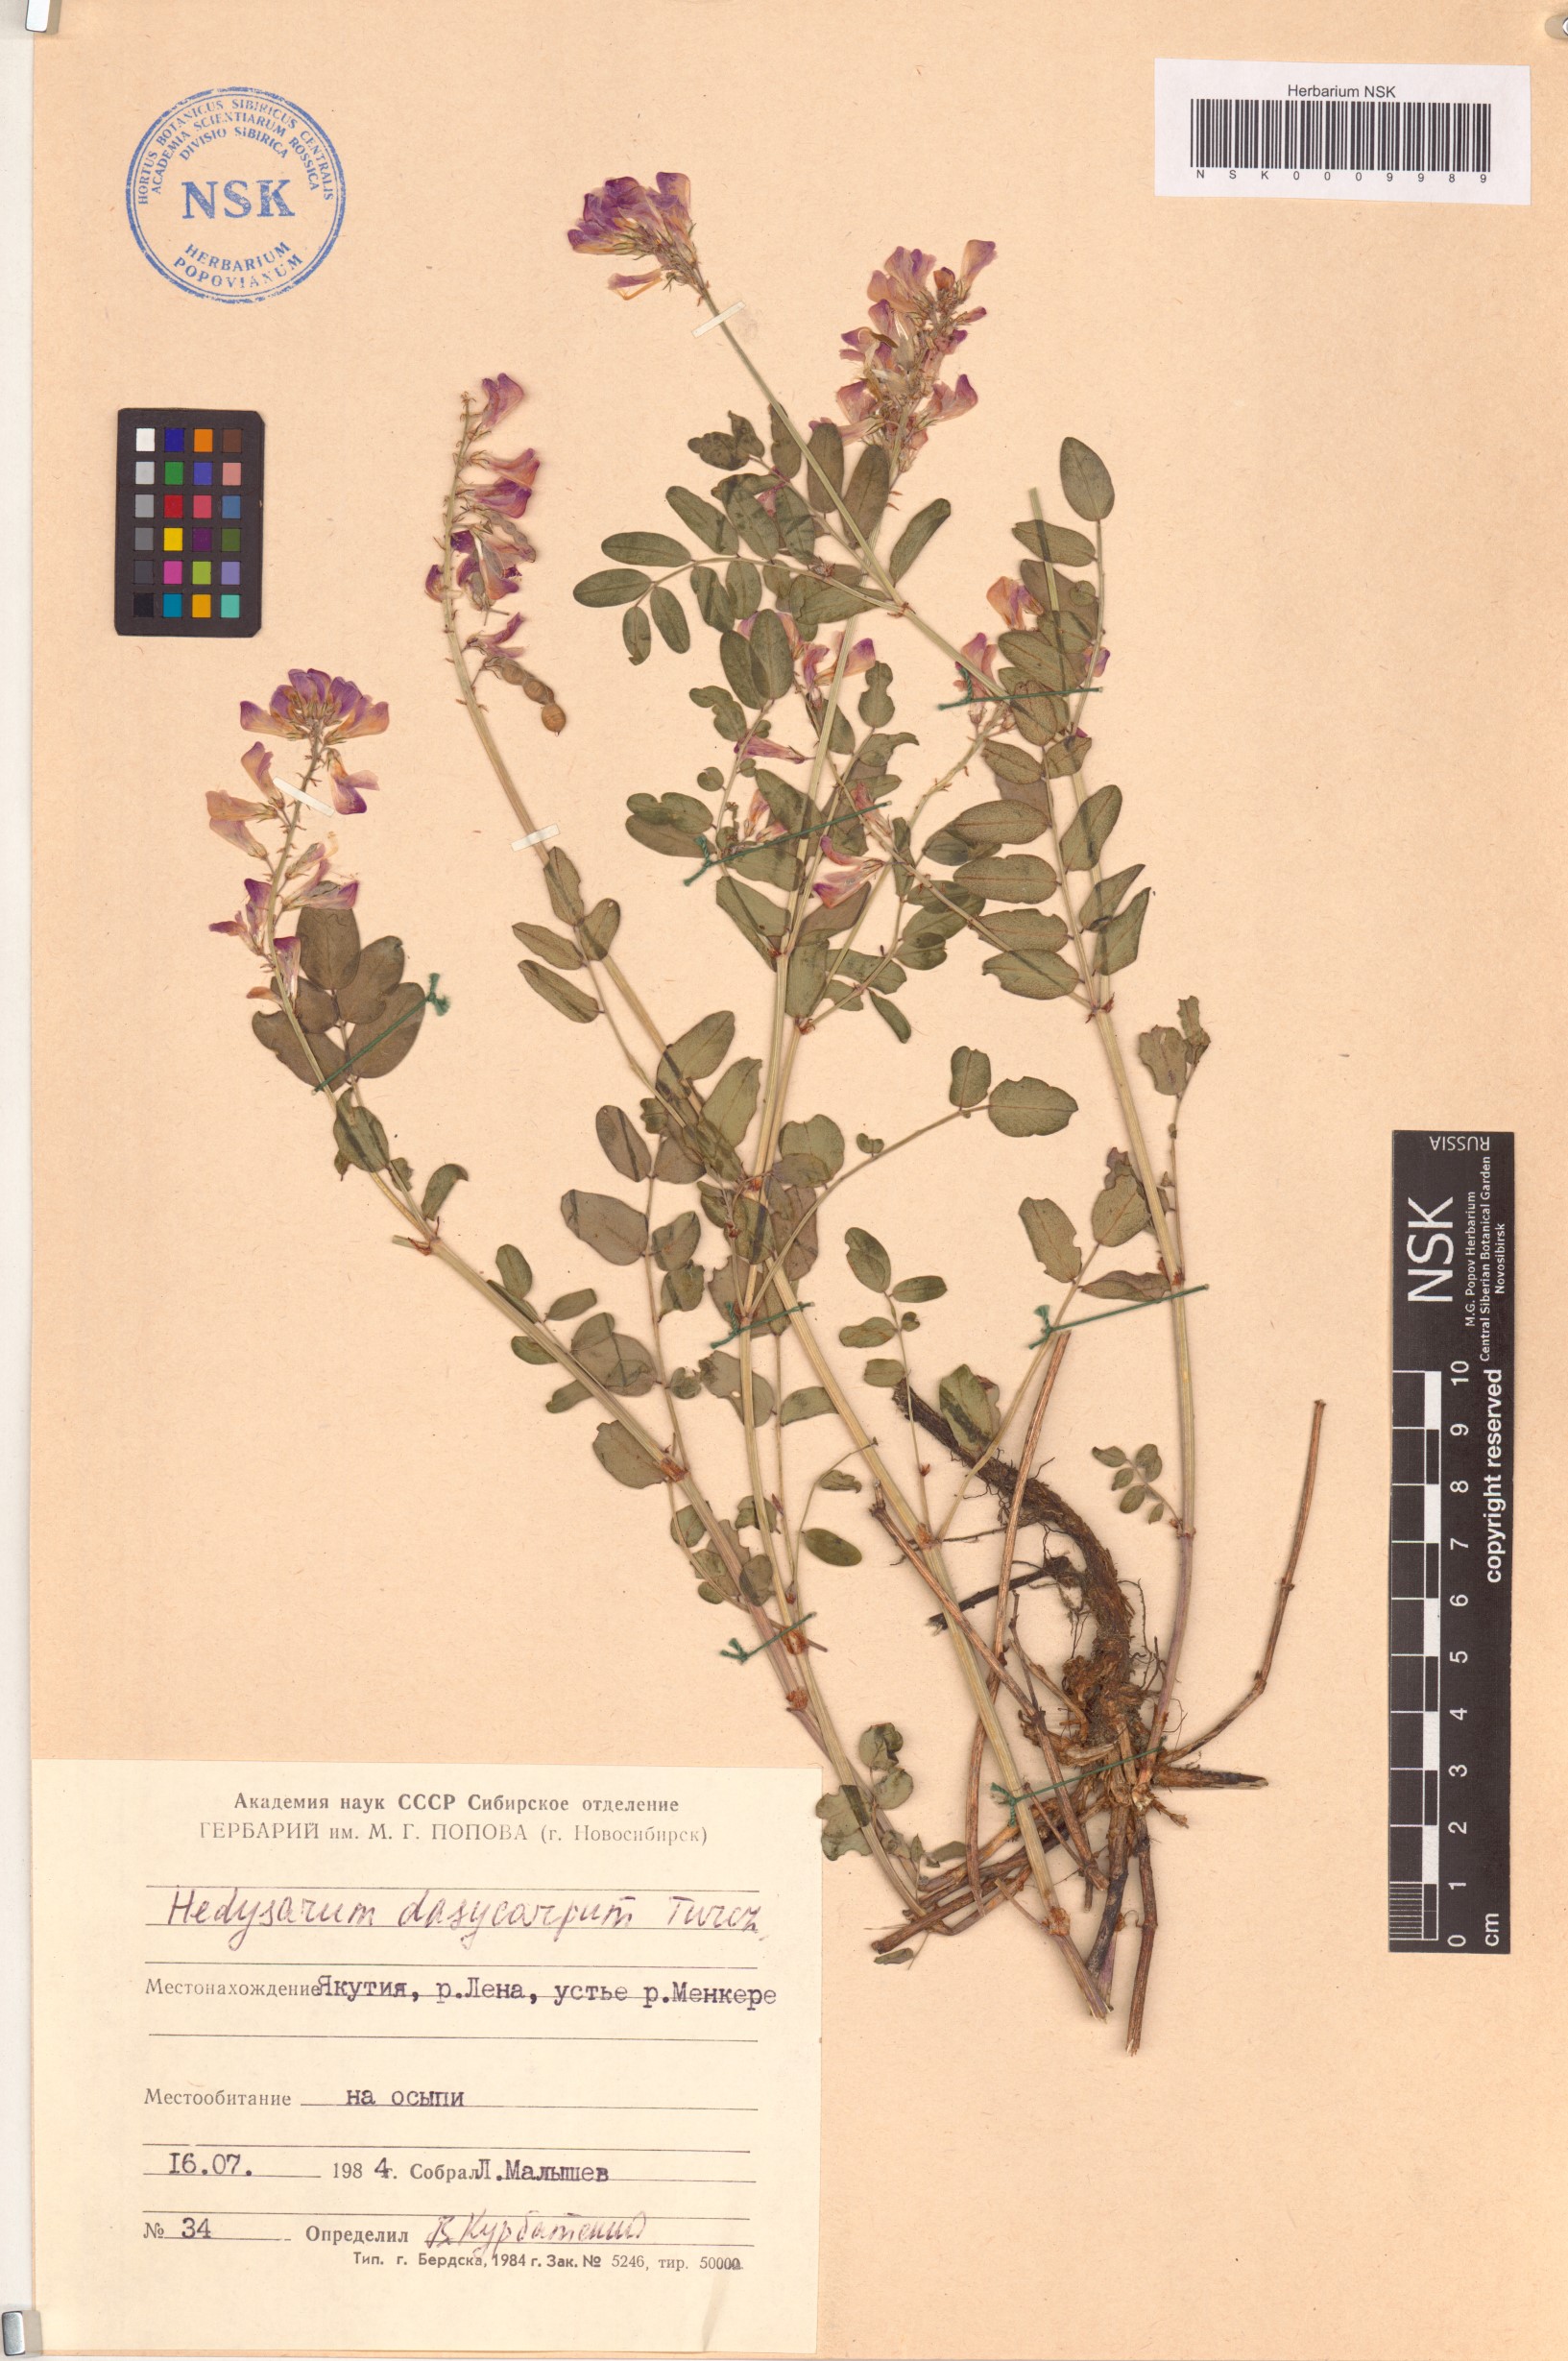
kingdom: Plantae
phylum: Tracheophyta
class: Magnoliopsida
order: Fabales
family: Fabaceae
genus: Hedysarum
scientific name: Hedysarum dasycarpum
